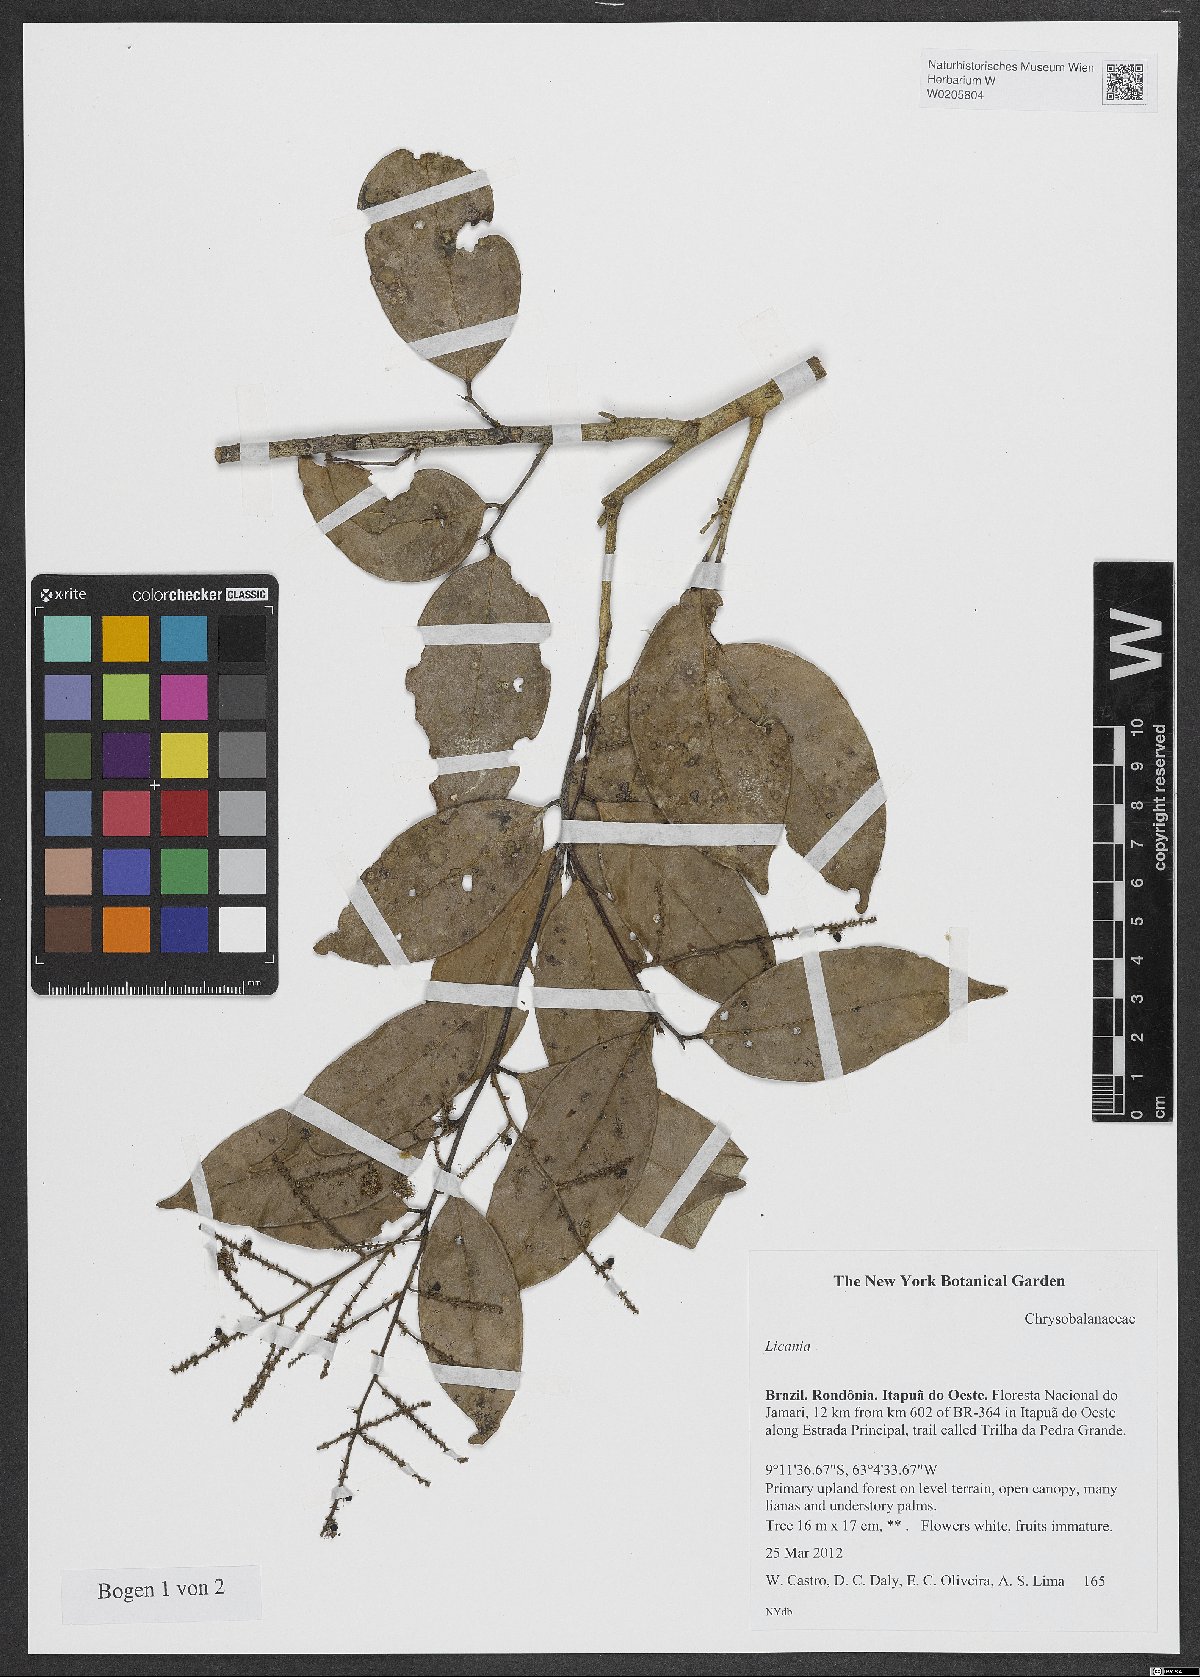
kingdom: Plantae
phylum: Tracheophyta
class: Magnoliopsida
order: Malpighiales
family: Chrysobalanaceae
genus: Licania
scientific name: Licania
